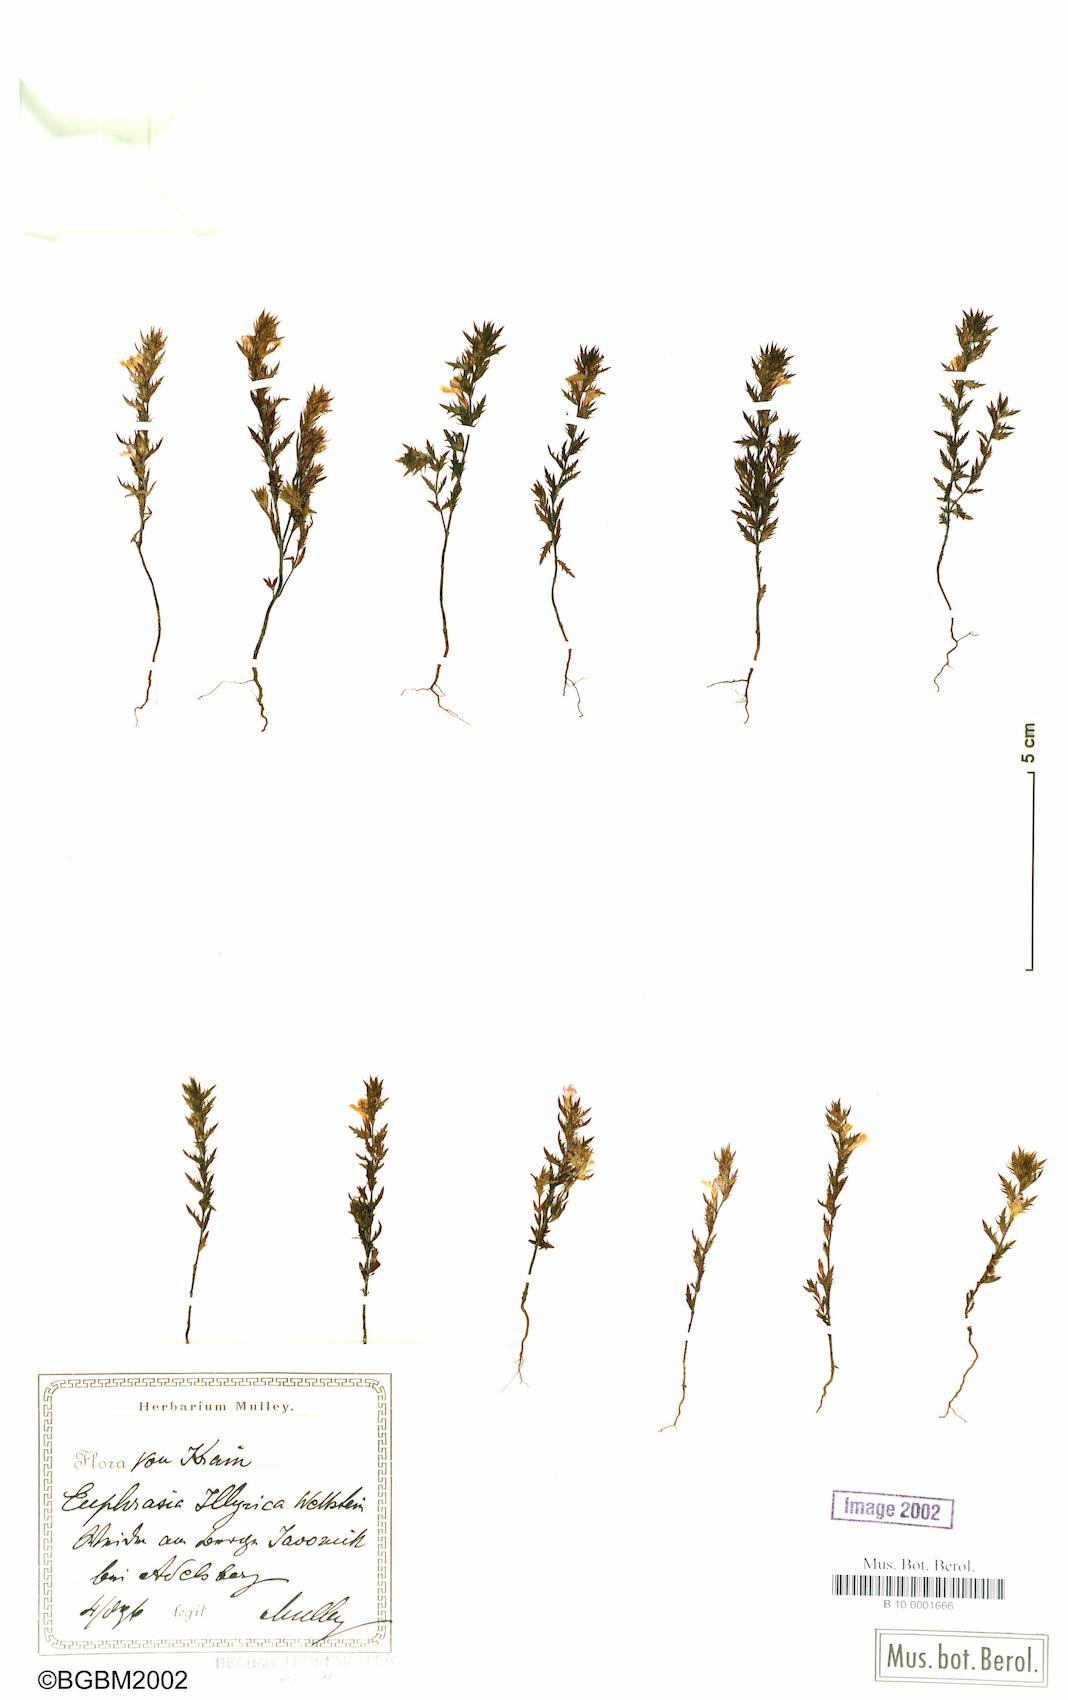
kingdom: Plantae
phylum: Tracheophyta
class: Magnoliopsida
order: Lamiales
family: Orobanchaceae
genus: Euphrasia
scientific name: Euphrasia illyrica
